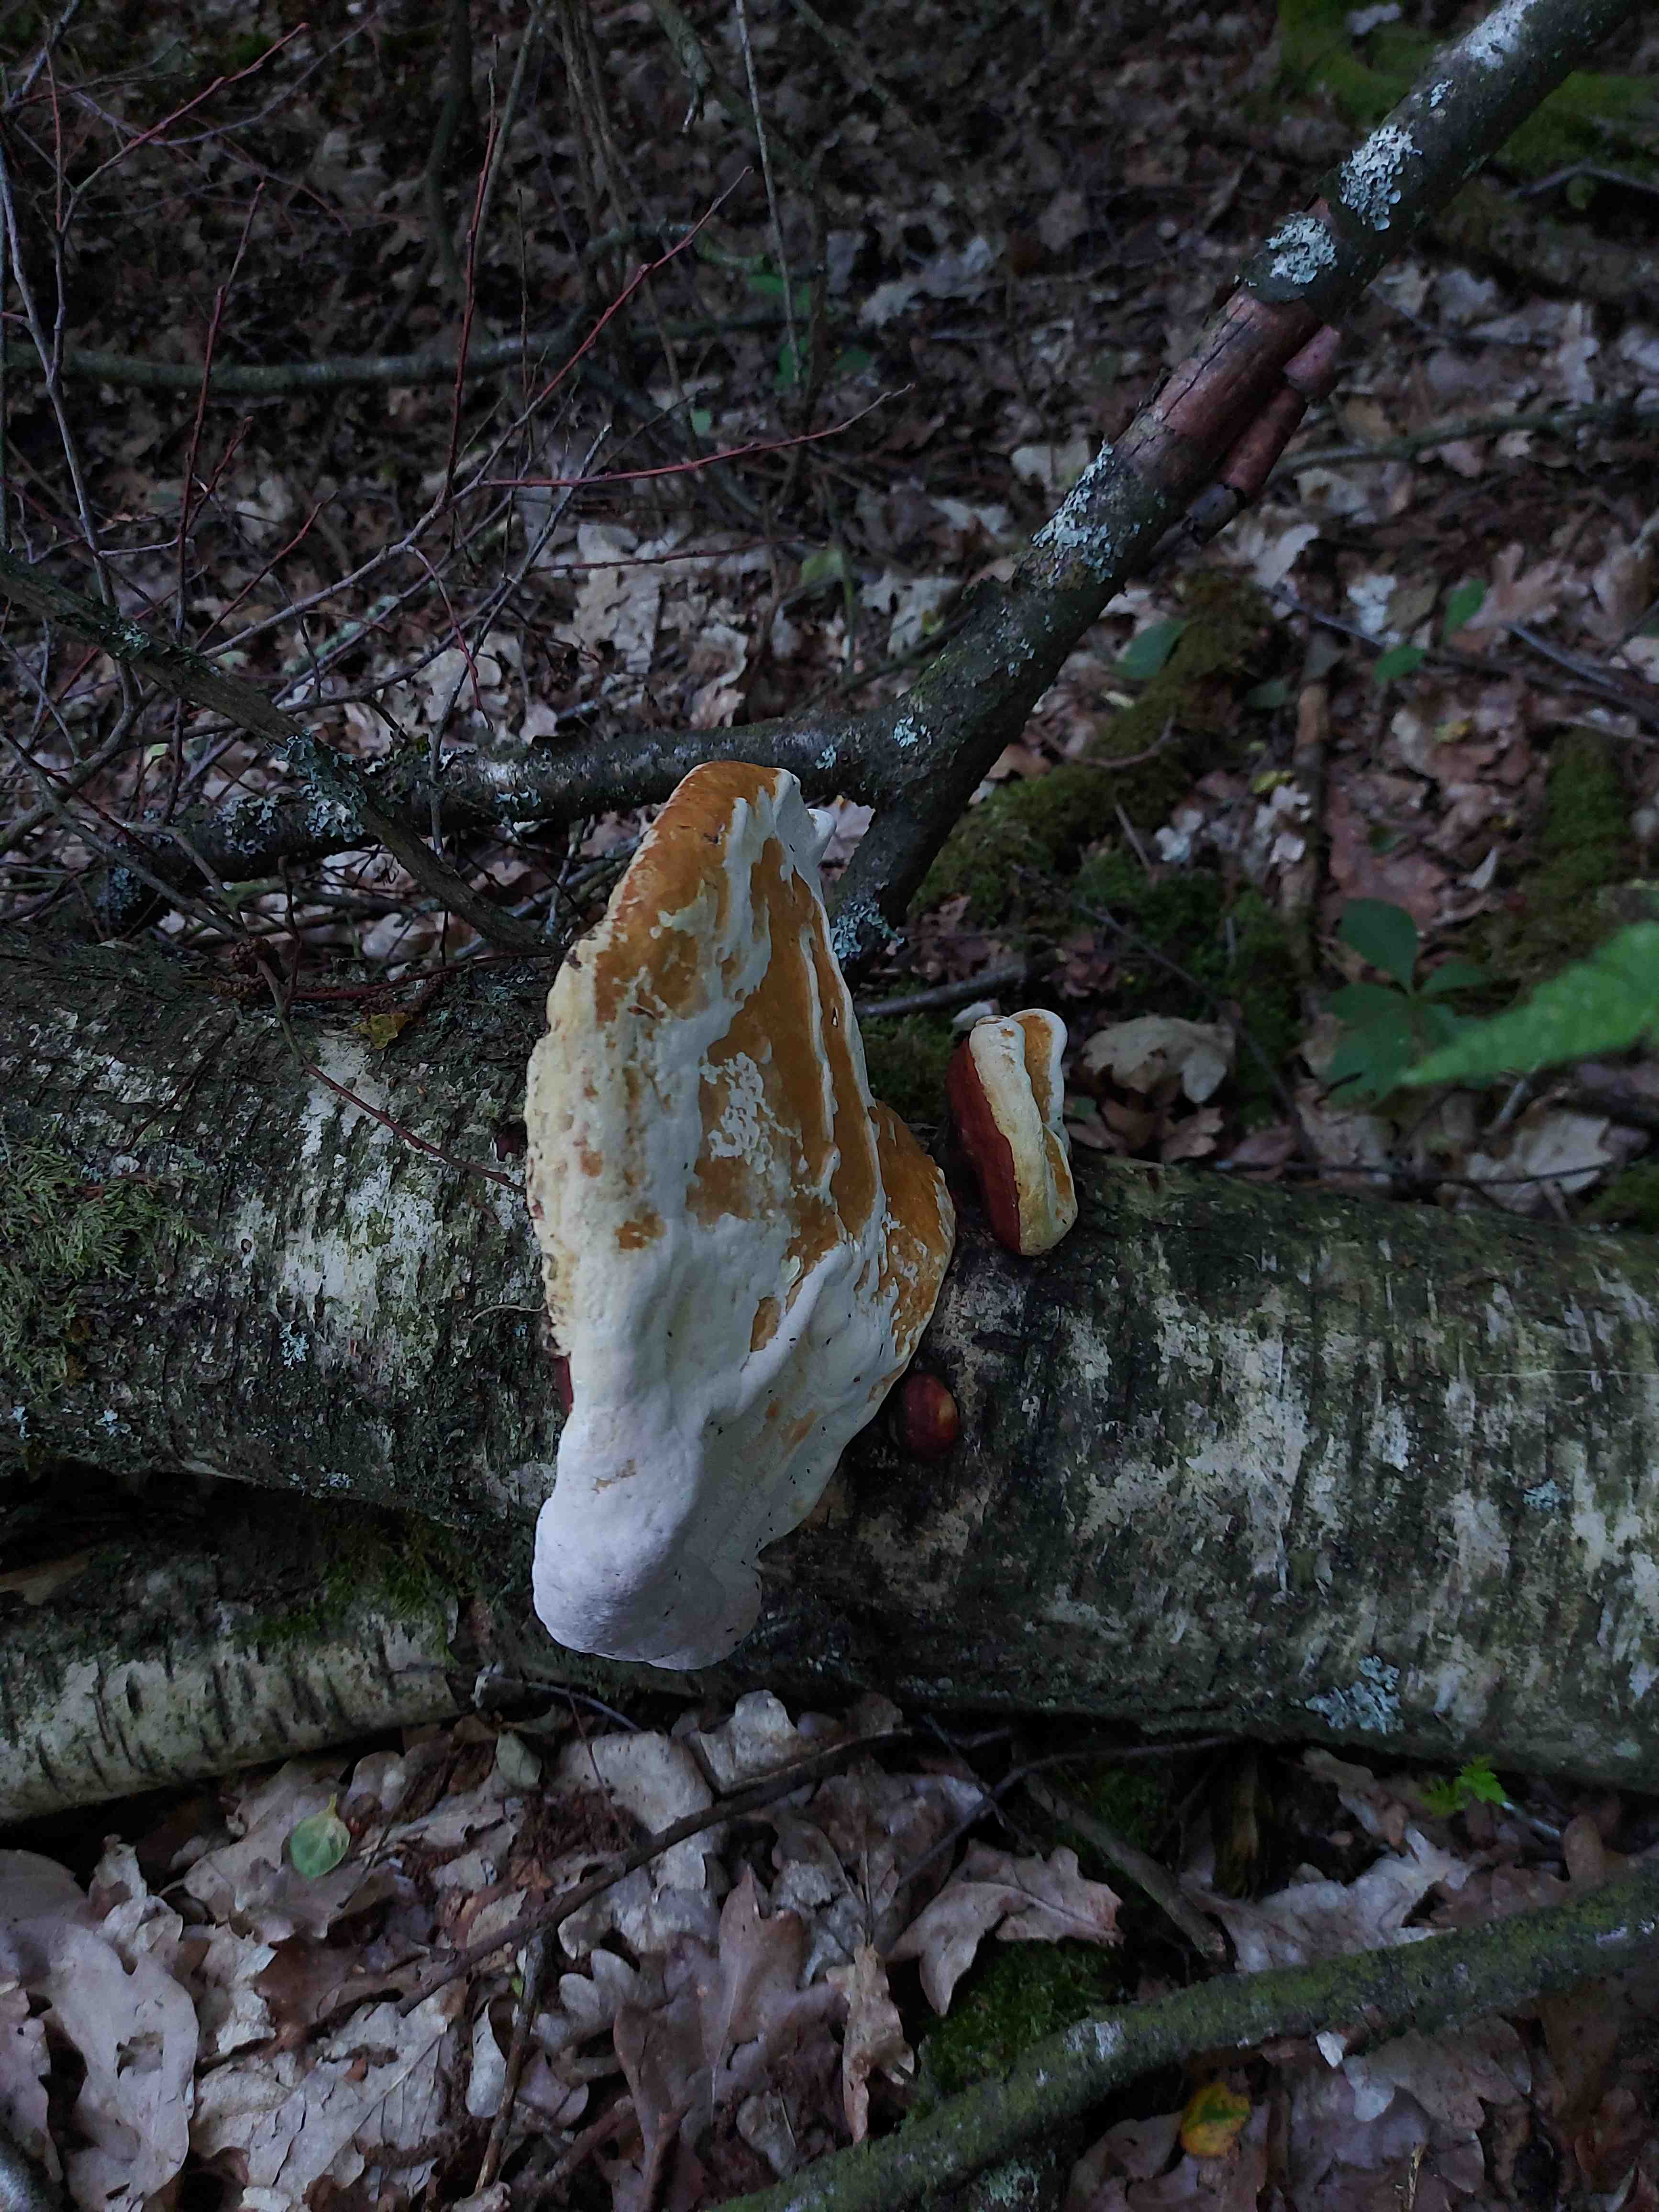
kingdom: Fungi
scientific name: Fungi
